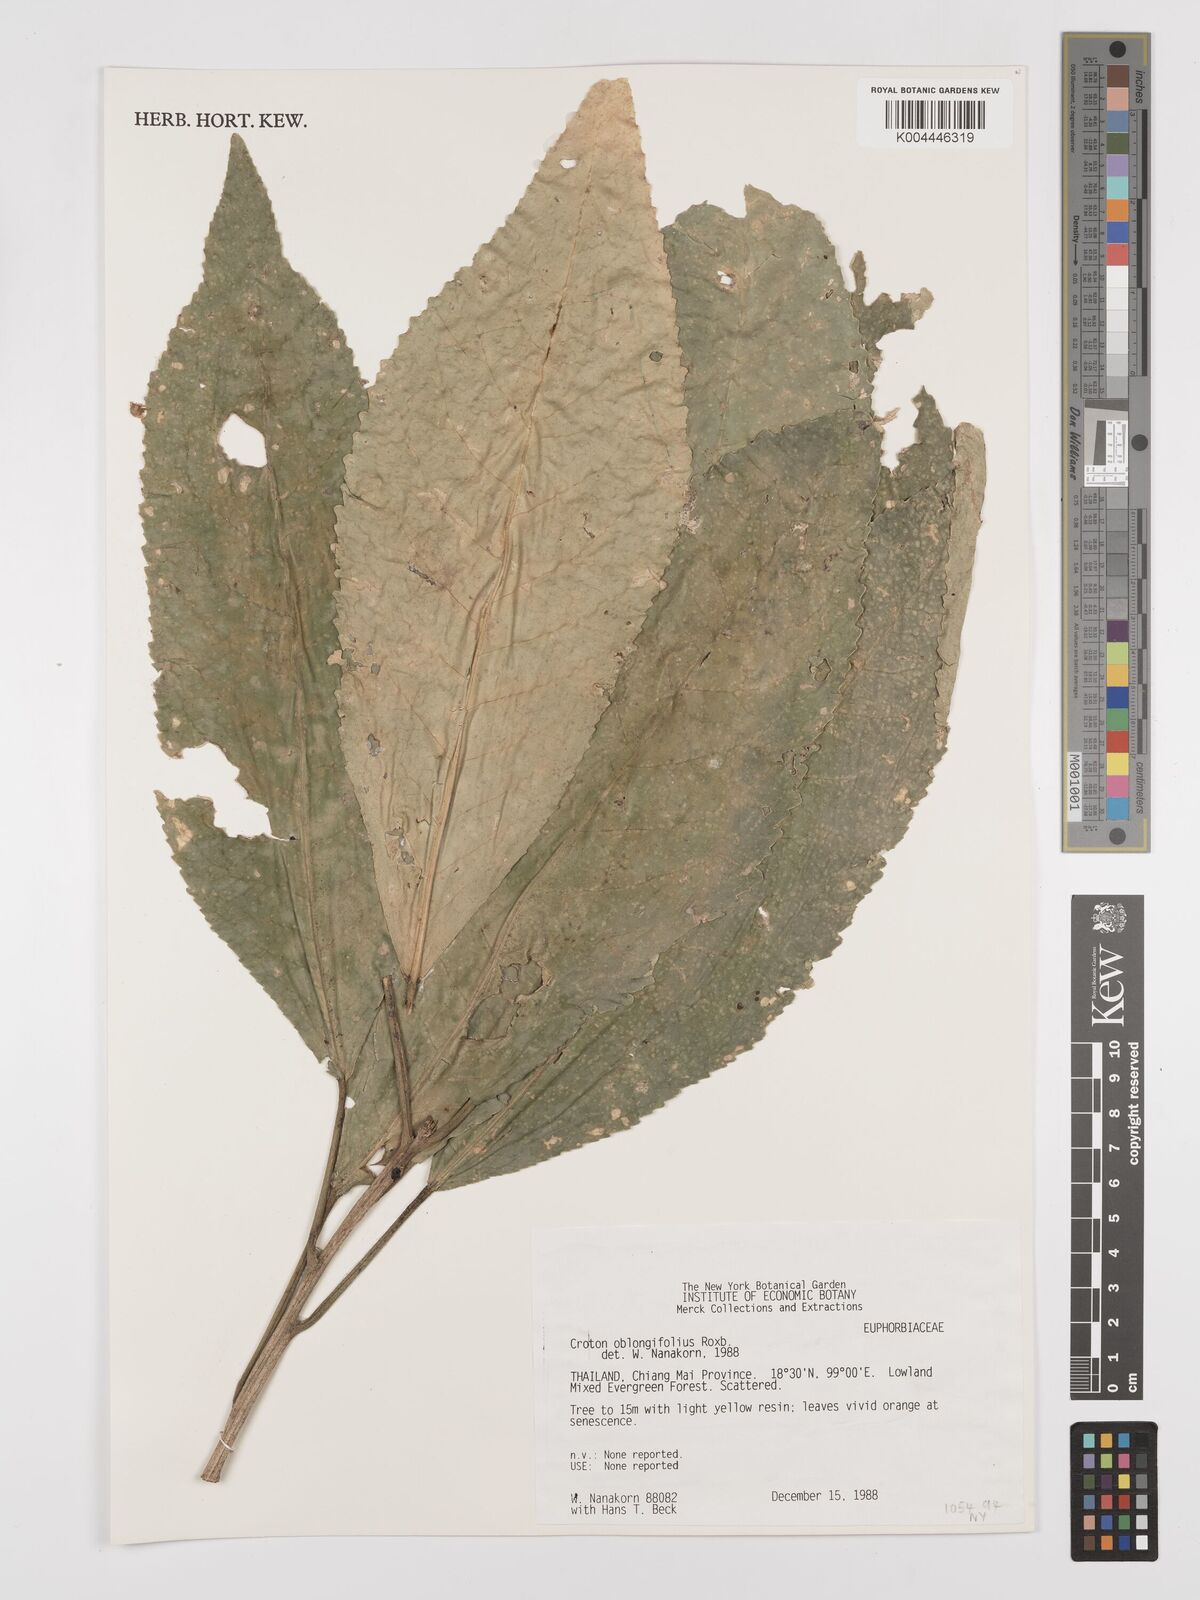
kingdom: Plantae
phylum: Tracheophyta
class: Magnoliopsida
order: Malpighiales
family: Euphorbiaceae
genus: Croton
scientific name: Croton
